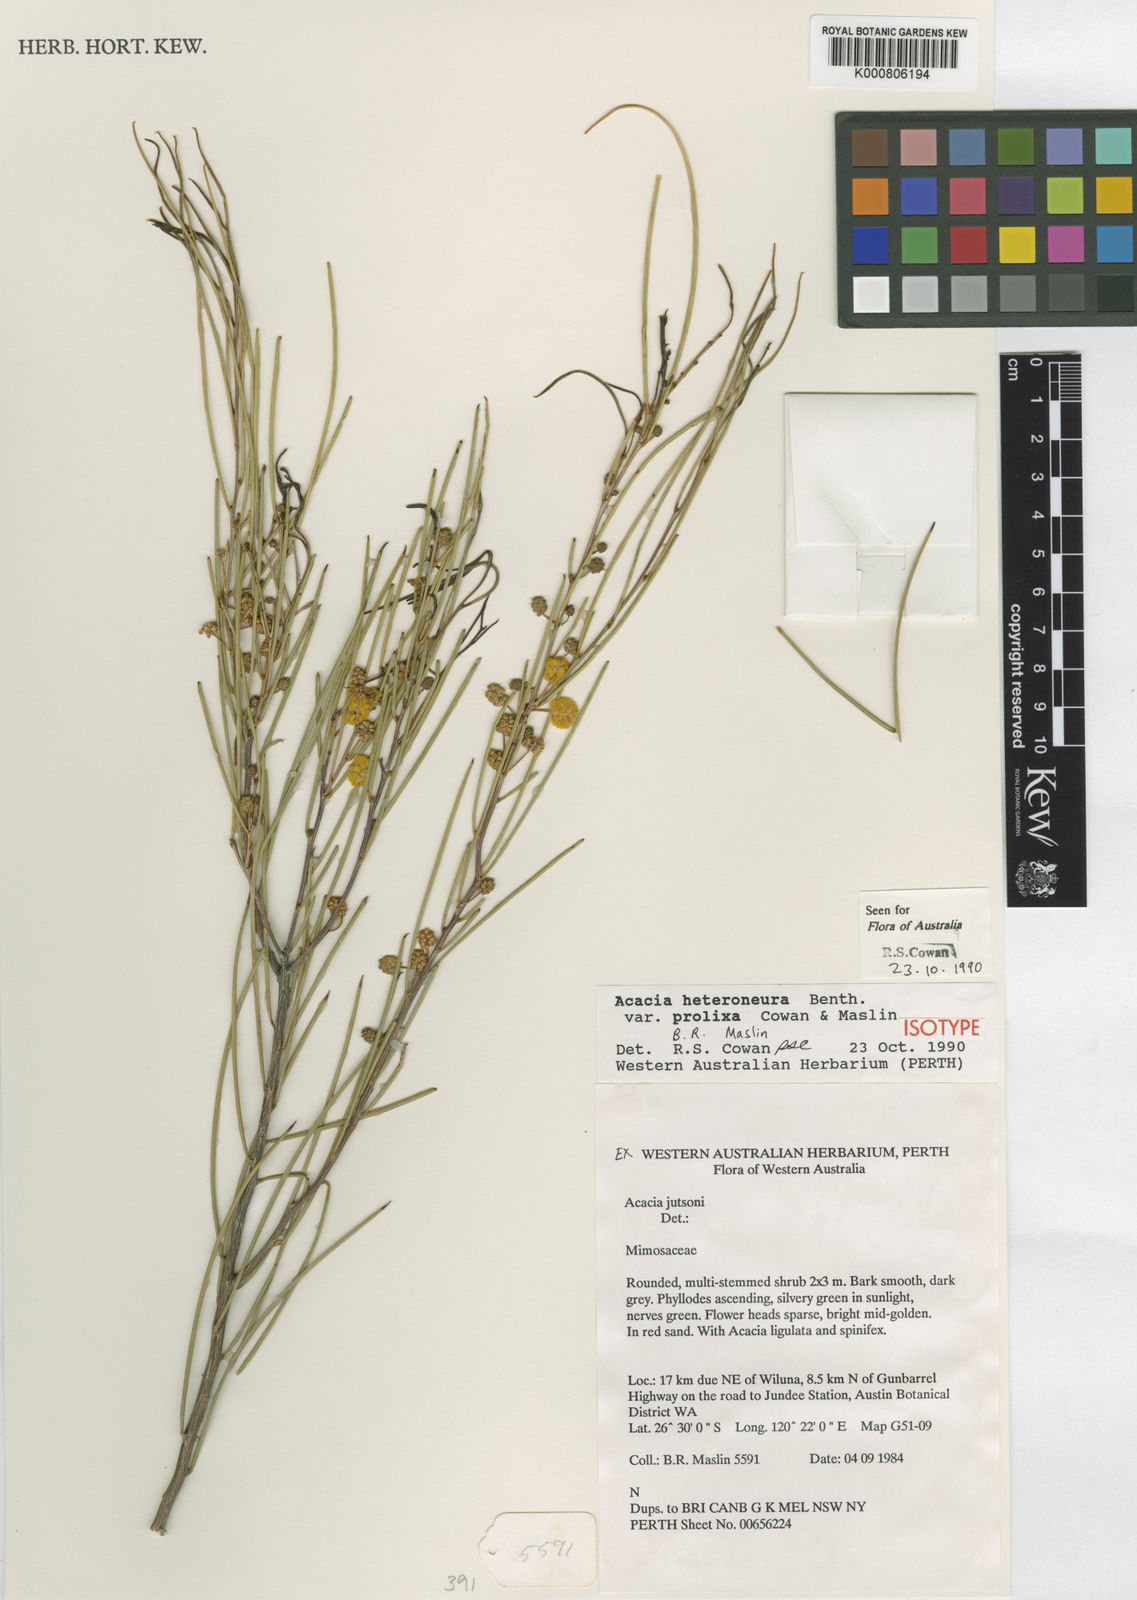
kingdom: Plantae
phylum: Tracheophyta
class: Magnoliopsida
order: Fabales
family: Fabaceae
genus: Acacia
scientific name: Acacia heteroneura
